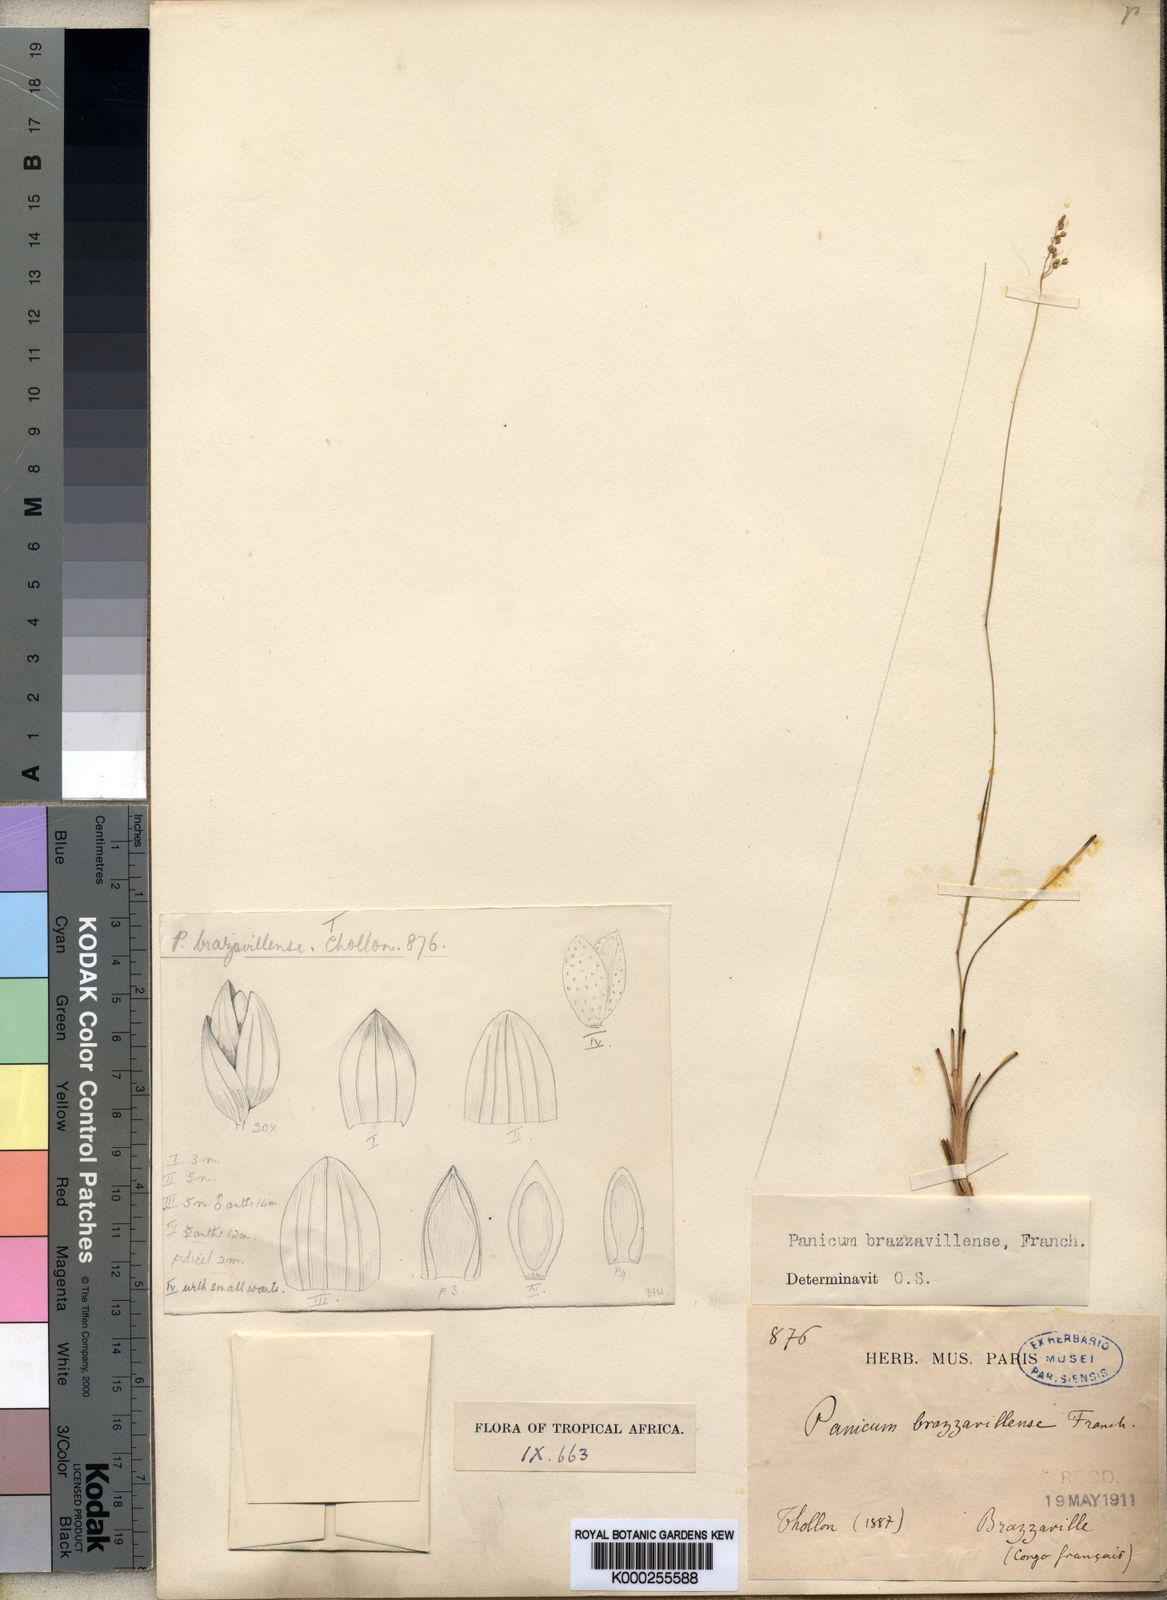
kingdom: Plantae
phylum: Tracheophyta
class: Liliopsida
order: Poales
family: Poaceae
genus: Trichanthecium
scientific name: Trichanthecium brazzavillense
